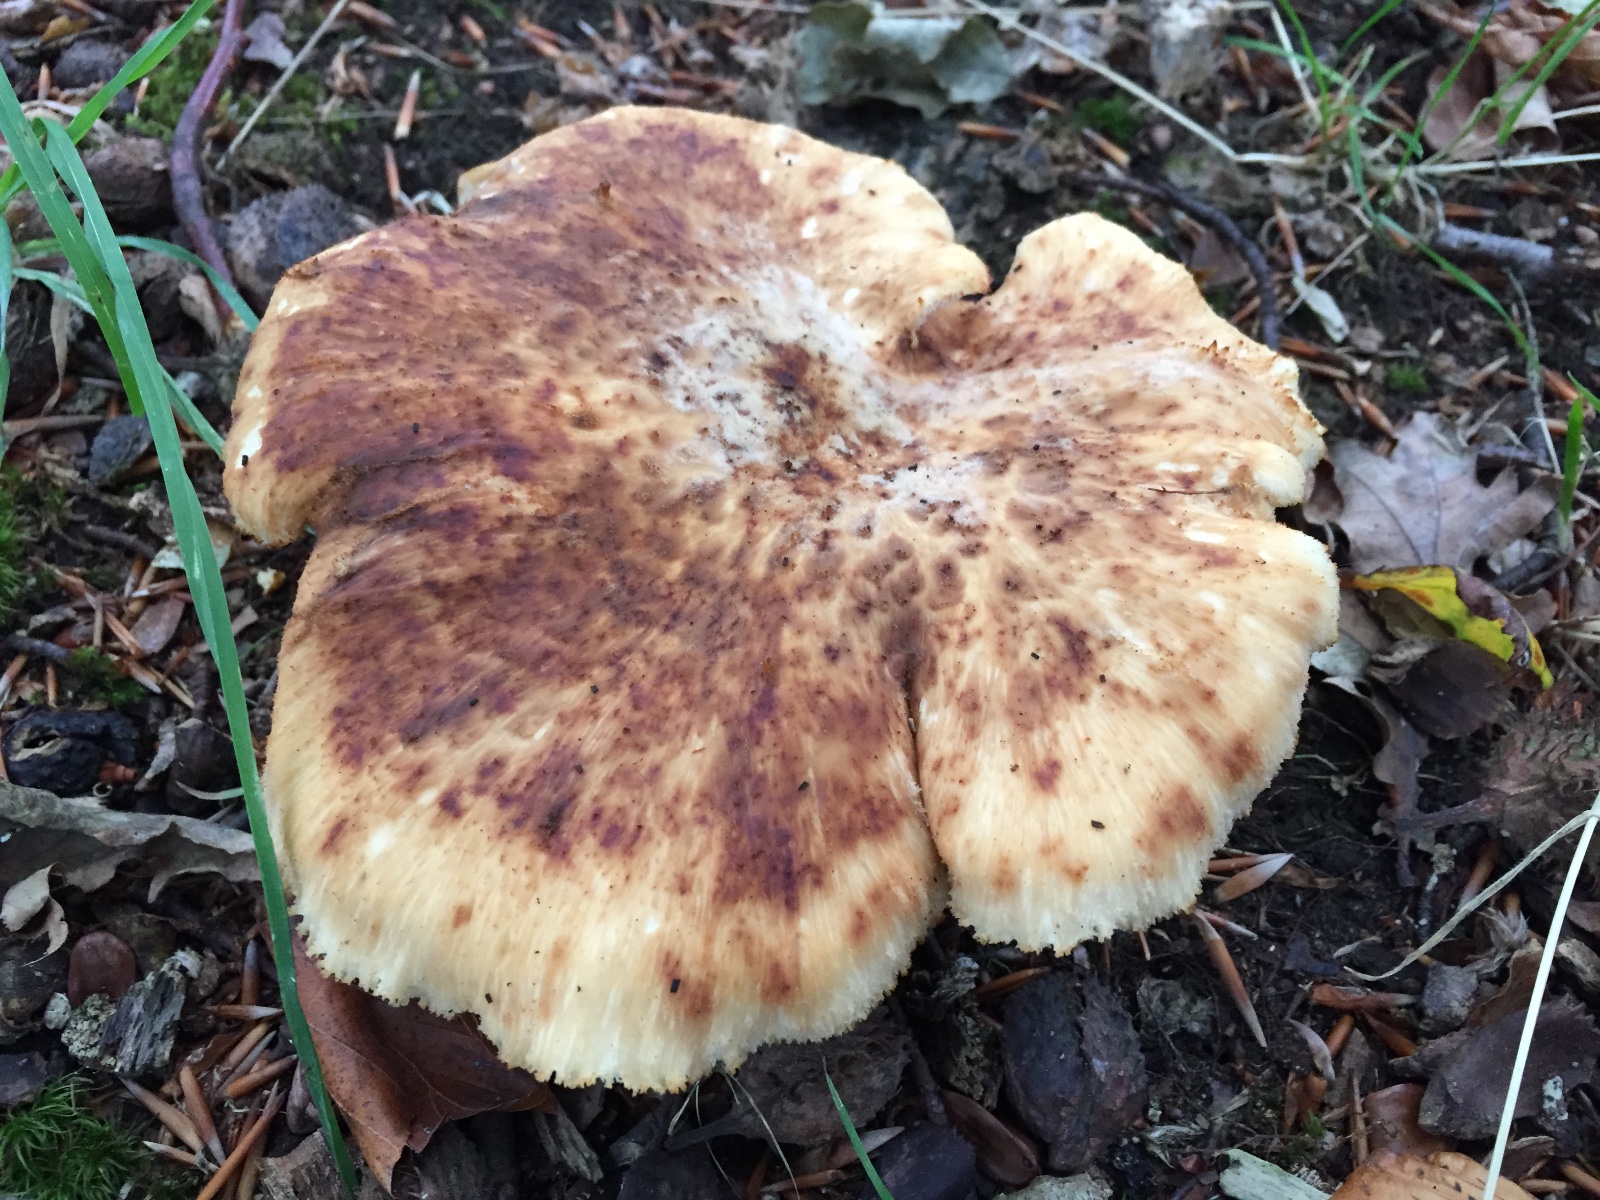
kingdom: Fungi
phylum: Basidiomycota
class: Agaricomycetes
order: Polyporales
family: Polyporaceae
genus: Polyporus
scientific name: Polyporus tuberaster
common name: knoldet stilkporesvamp
